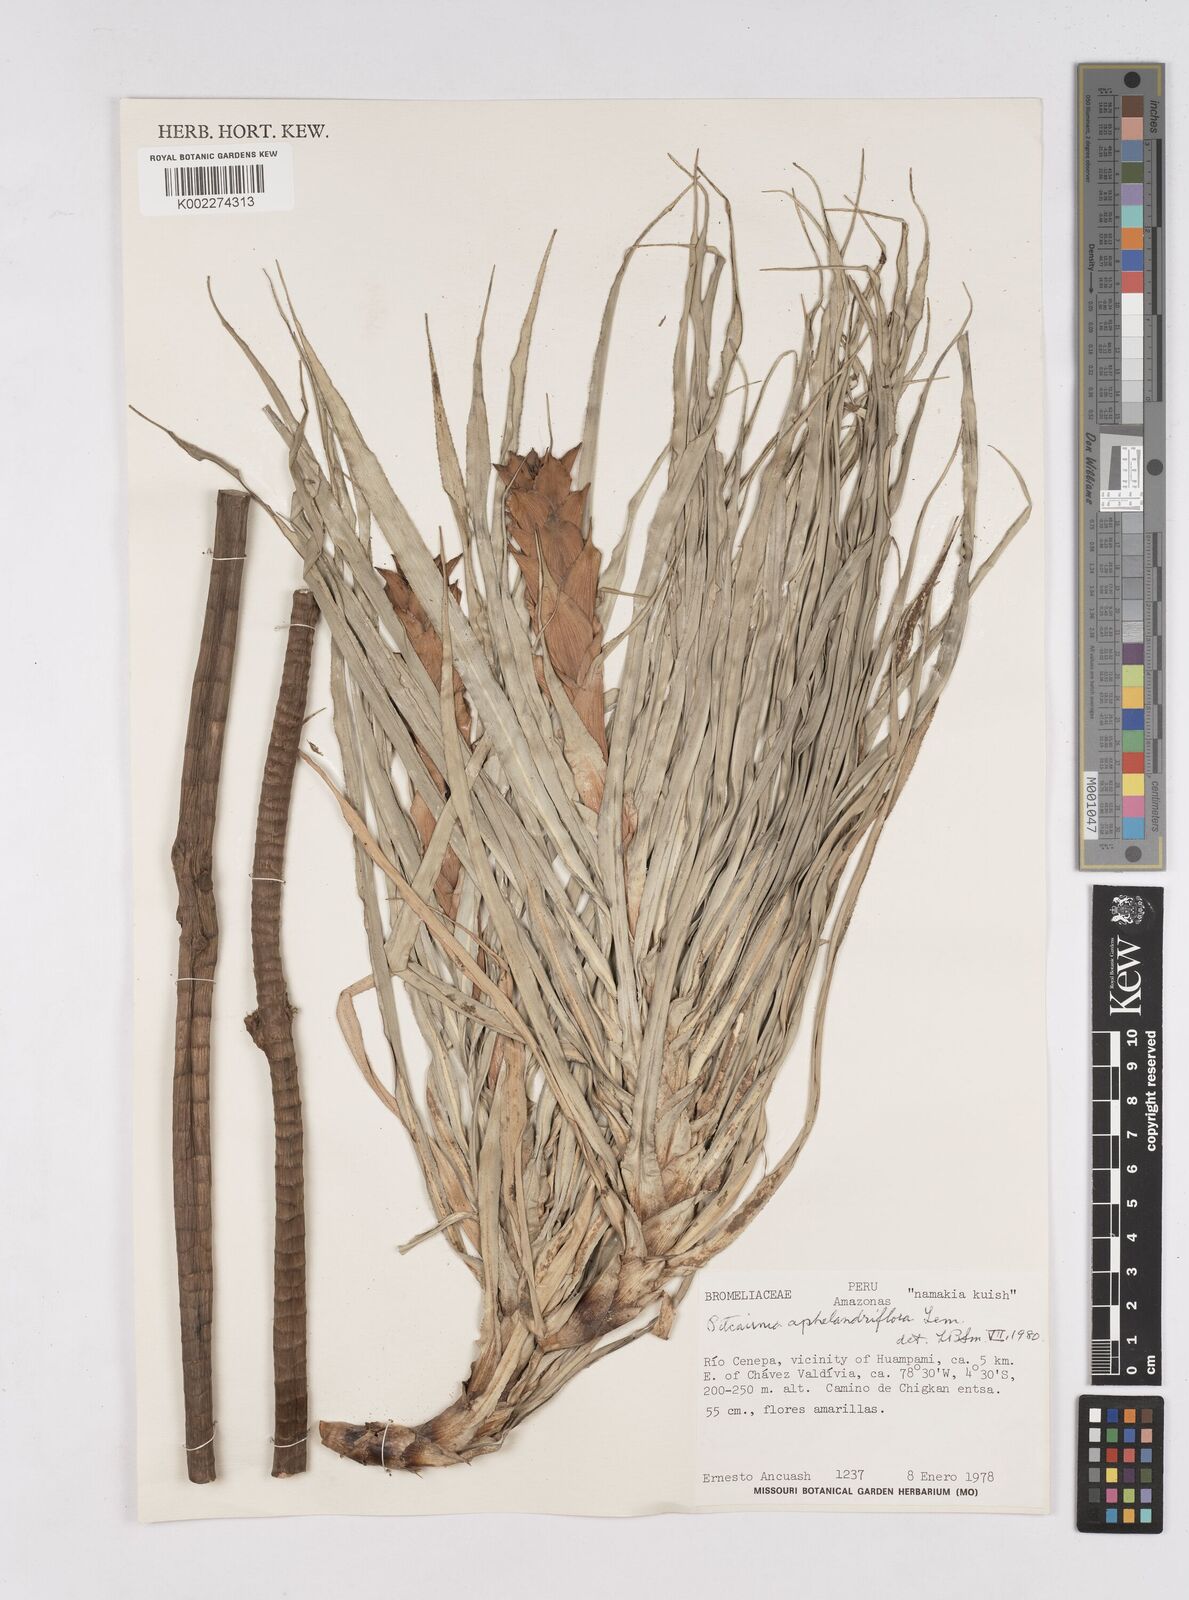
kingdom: Plantae
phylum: Tracheophyta
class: Liliopsida
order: Poales
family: Bromeliaceae
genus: Pitcairnia
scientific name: Pitcairnia aphelandriflora
